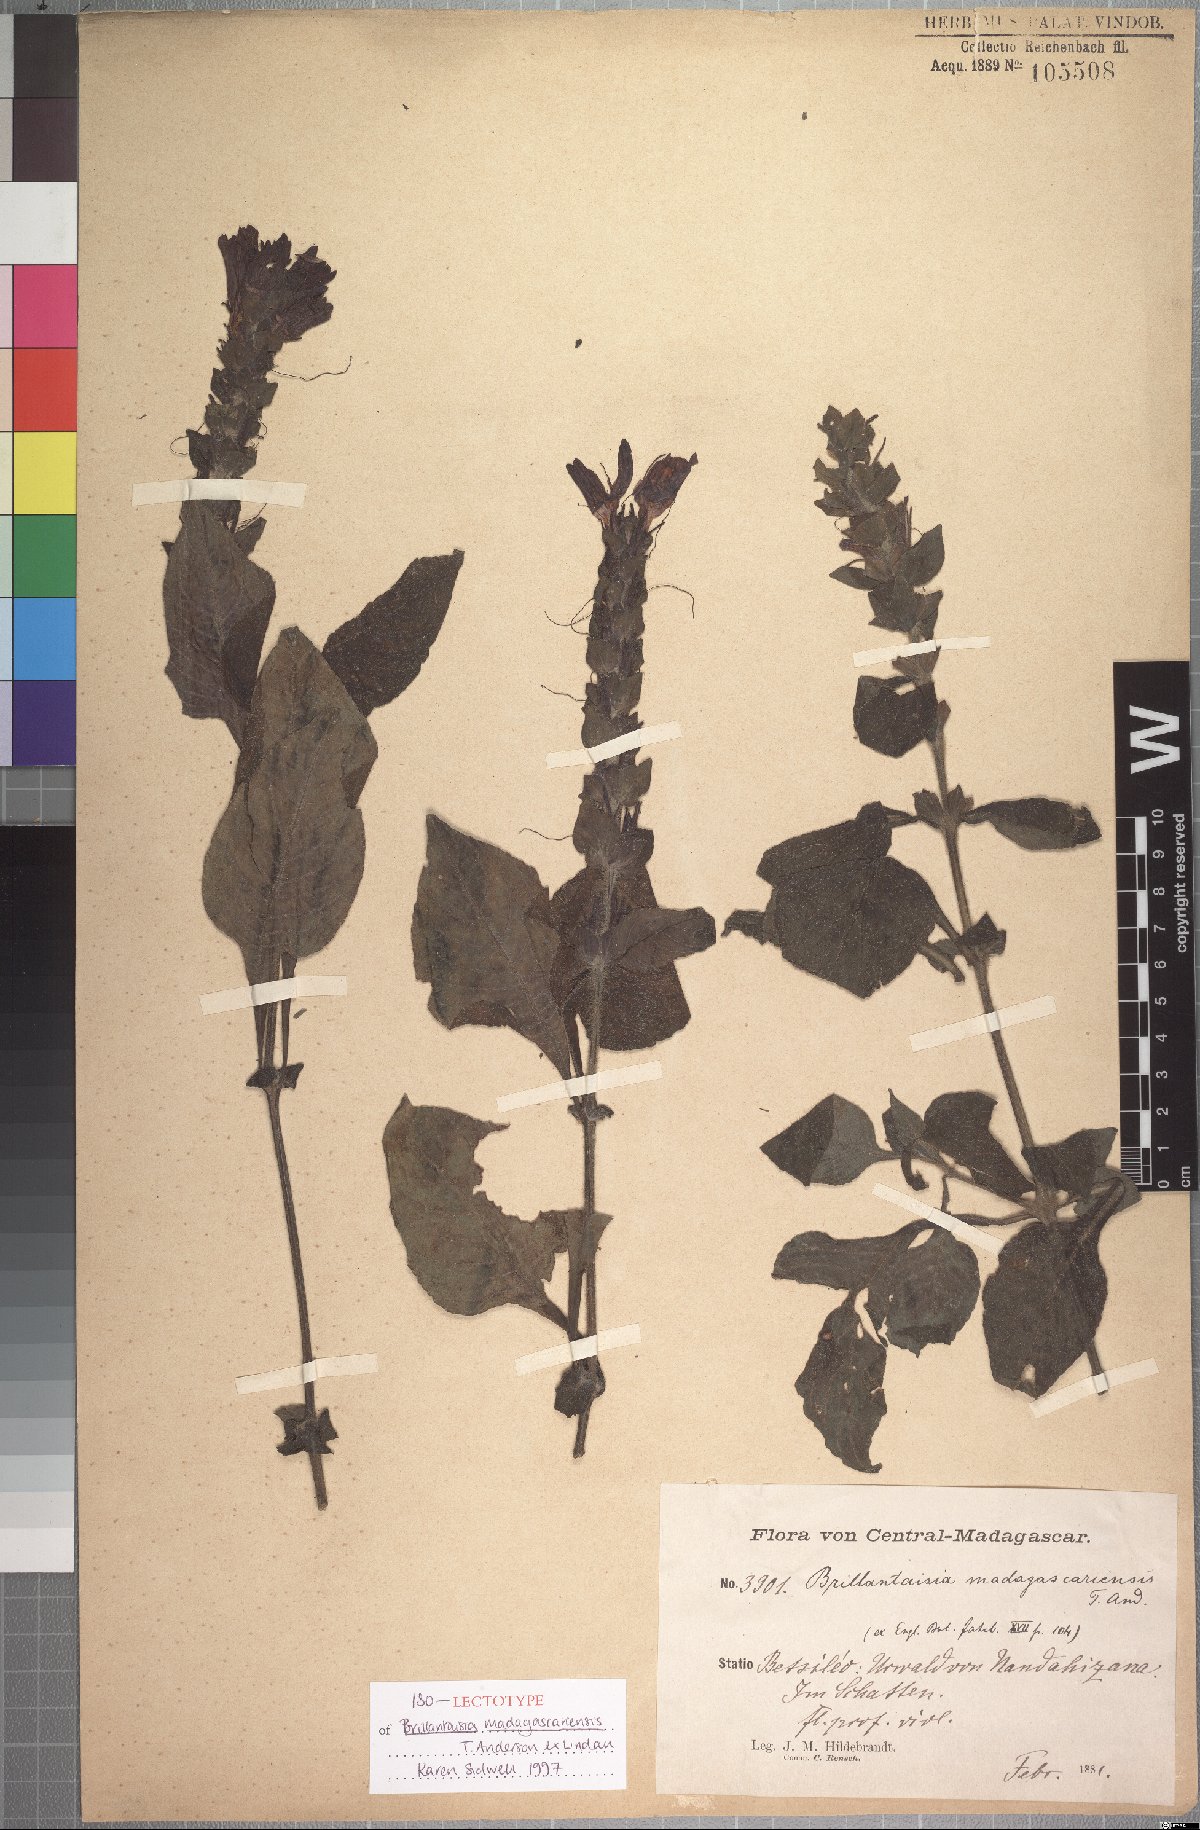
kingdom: Plantae
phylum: Tracheophyta
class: Magnoliopsida
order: Lamiales
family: Acanthaceae
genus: Brillantaisia
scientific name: Brillantaisia madagascariensis
